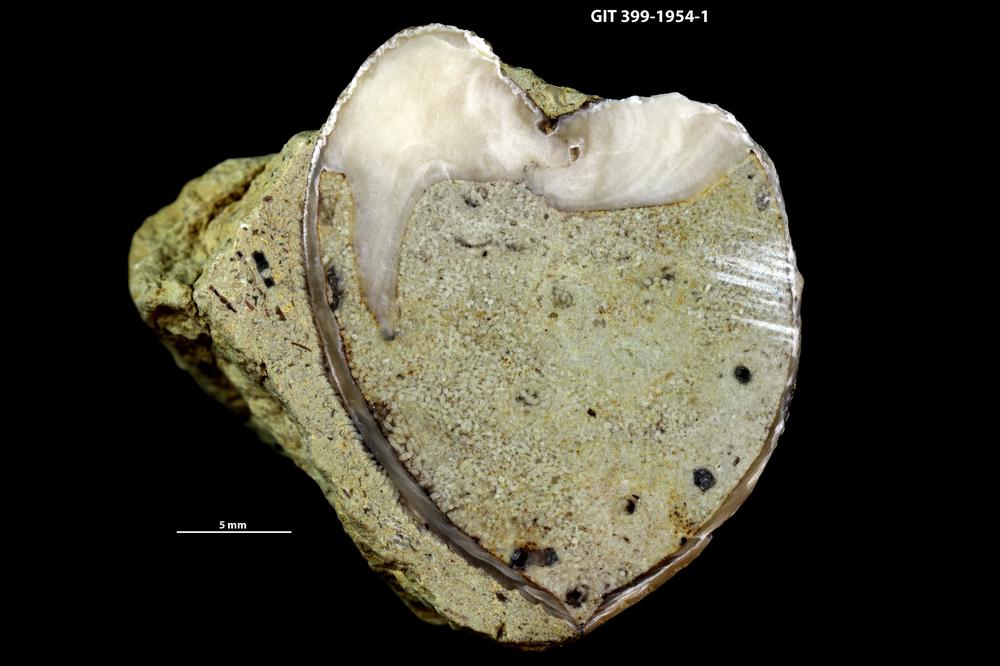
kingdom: Animalia
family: Coprulidae
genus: Coprulus
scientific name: Coprulus
